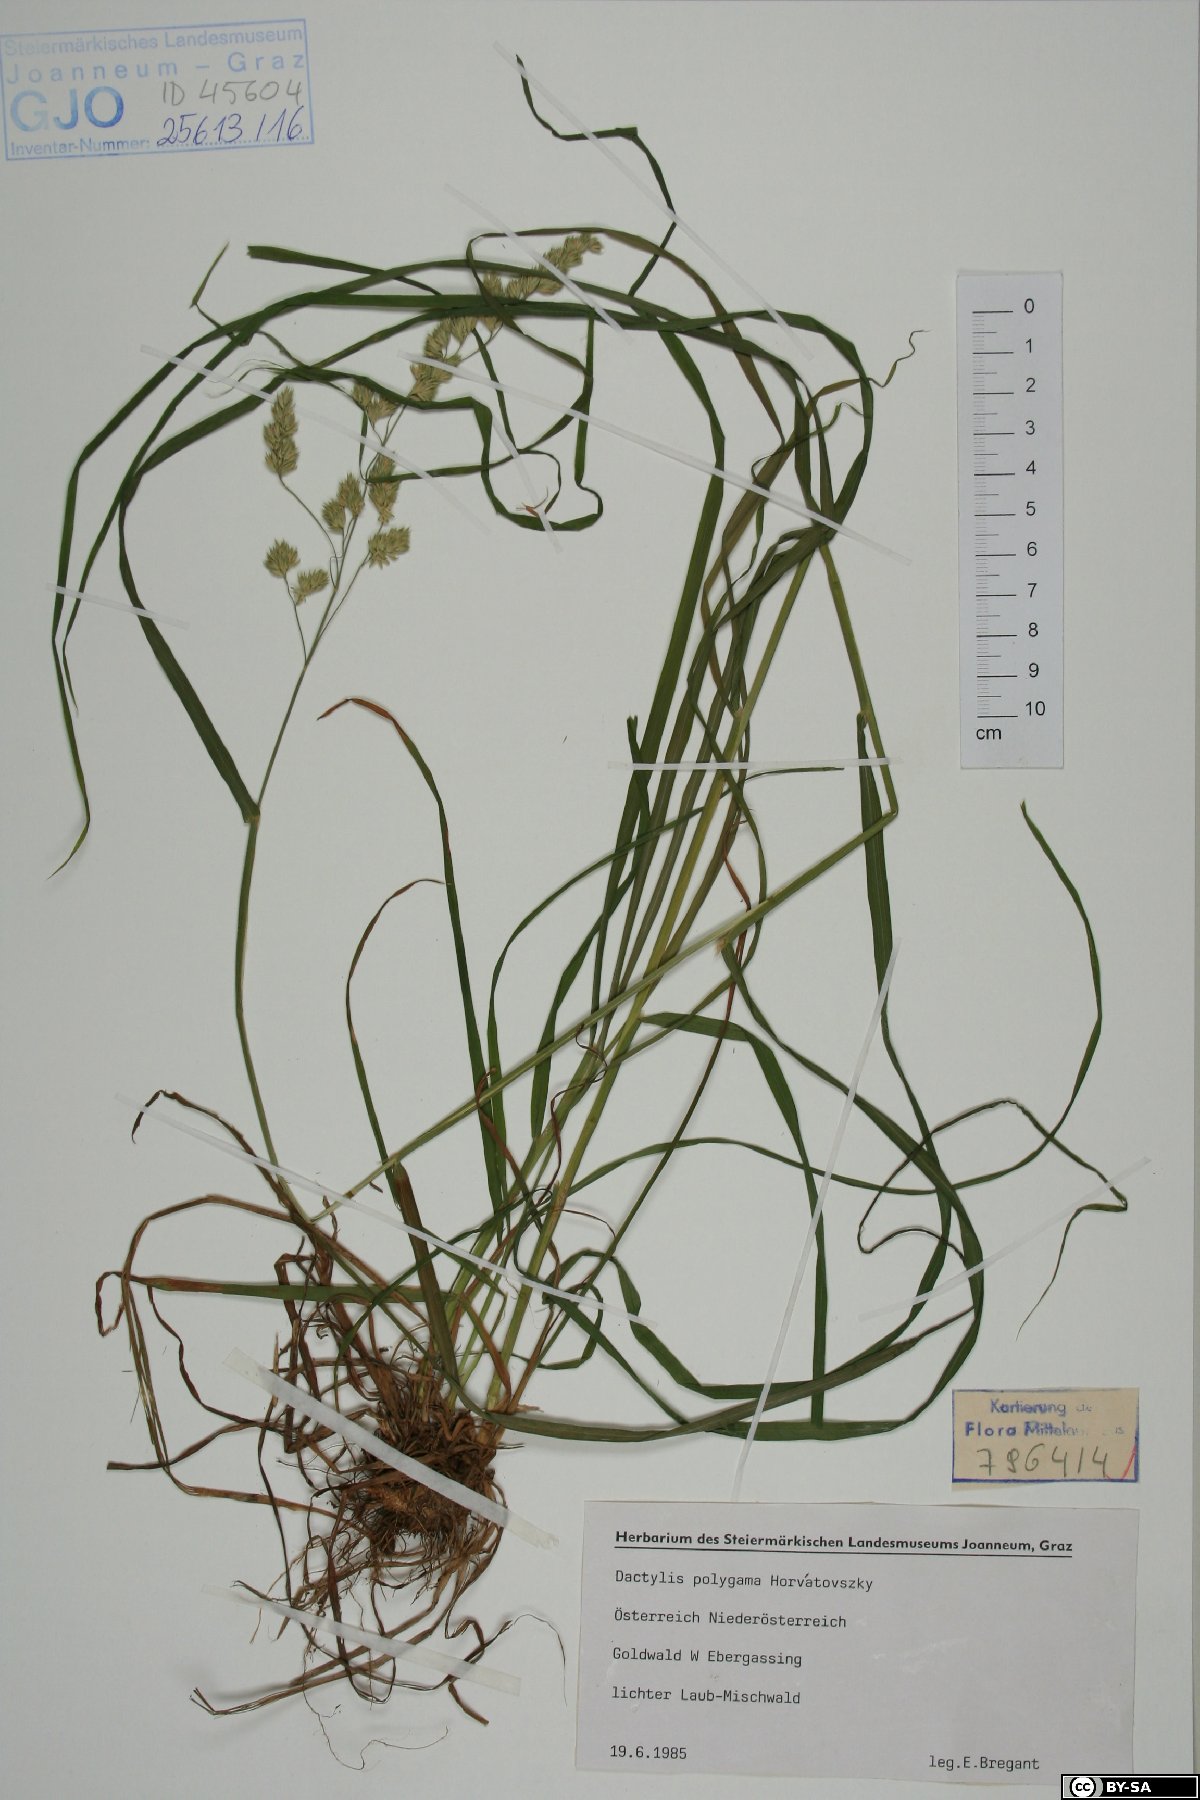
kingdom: Plantae
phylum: Tracheophyta
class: Liliopsida
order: Poales
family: Poaceae
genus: Dactylis
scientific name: Dactylis glomerata
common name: Orchardgrass
